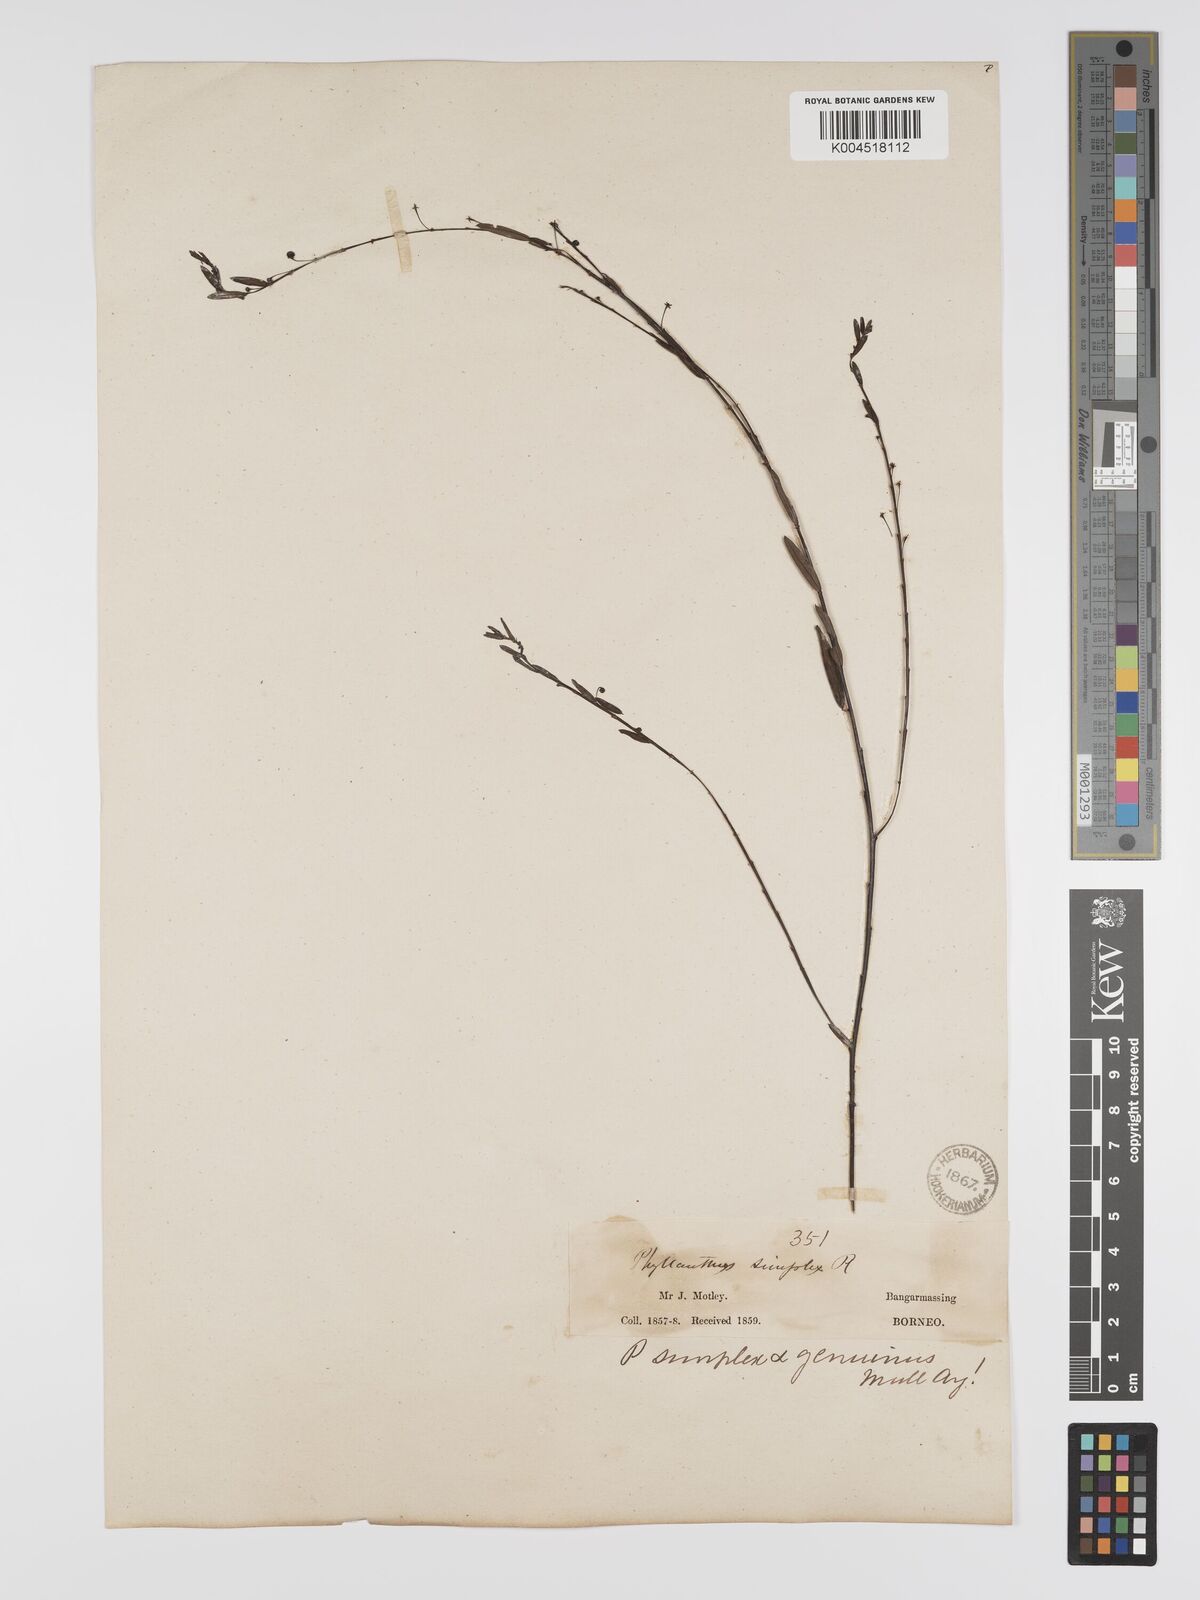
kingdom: Plantae
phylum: Tracheophyta
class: Magnoliopsida
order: Malpighiales
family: Phyllanthaceae
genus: Phyllanthus
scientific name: Phyllanthus virgatus
